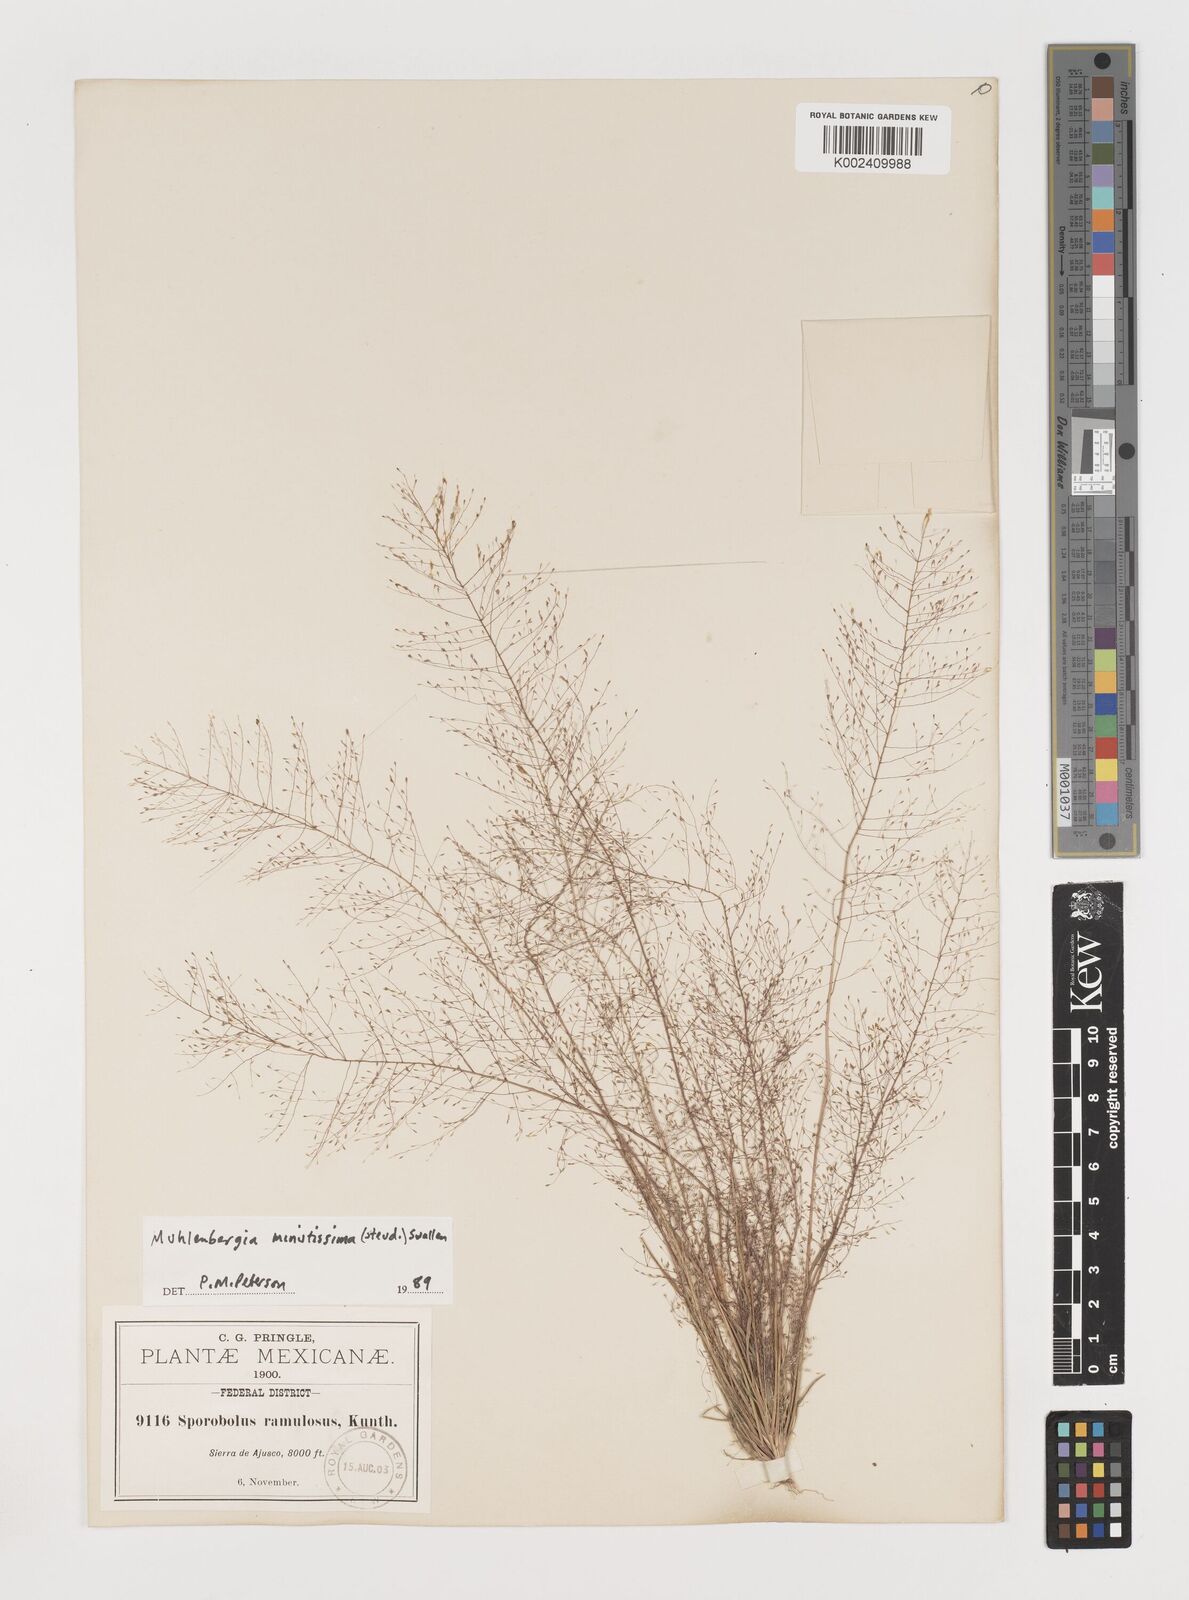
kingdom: Plantae
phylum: Tracheophyta
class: Liliopsida
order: Poales
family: Poaceae
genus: Muhlenbergia
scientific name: Muhlenbergia minutissima
